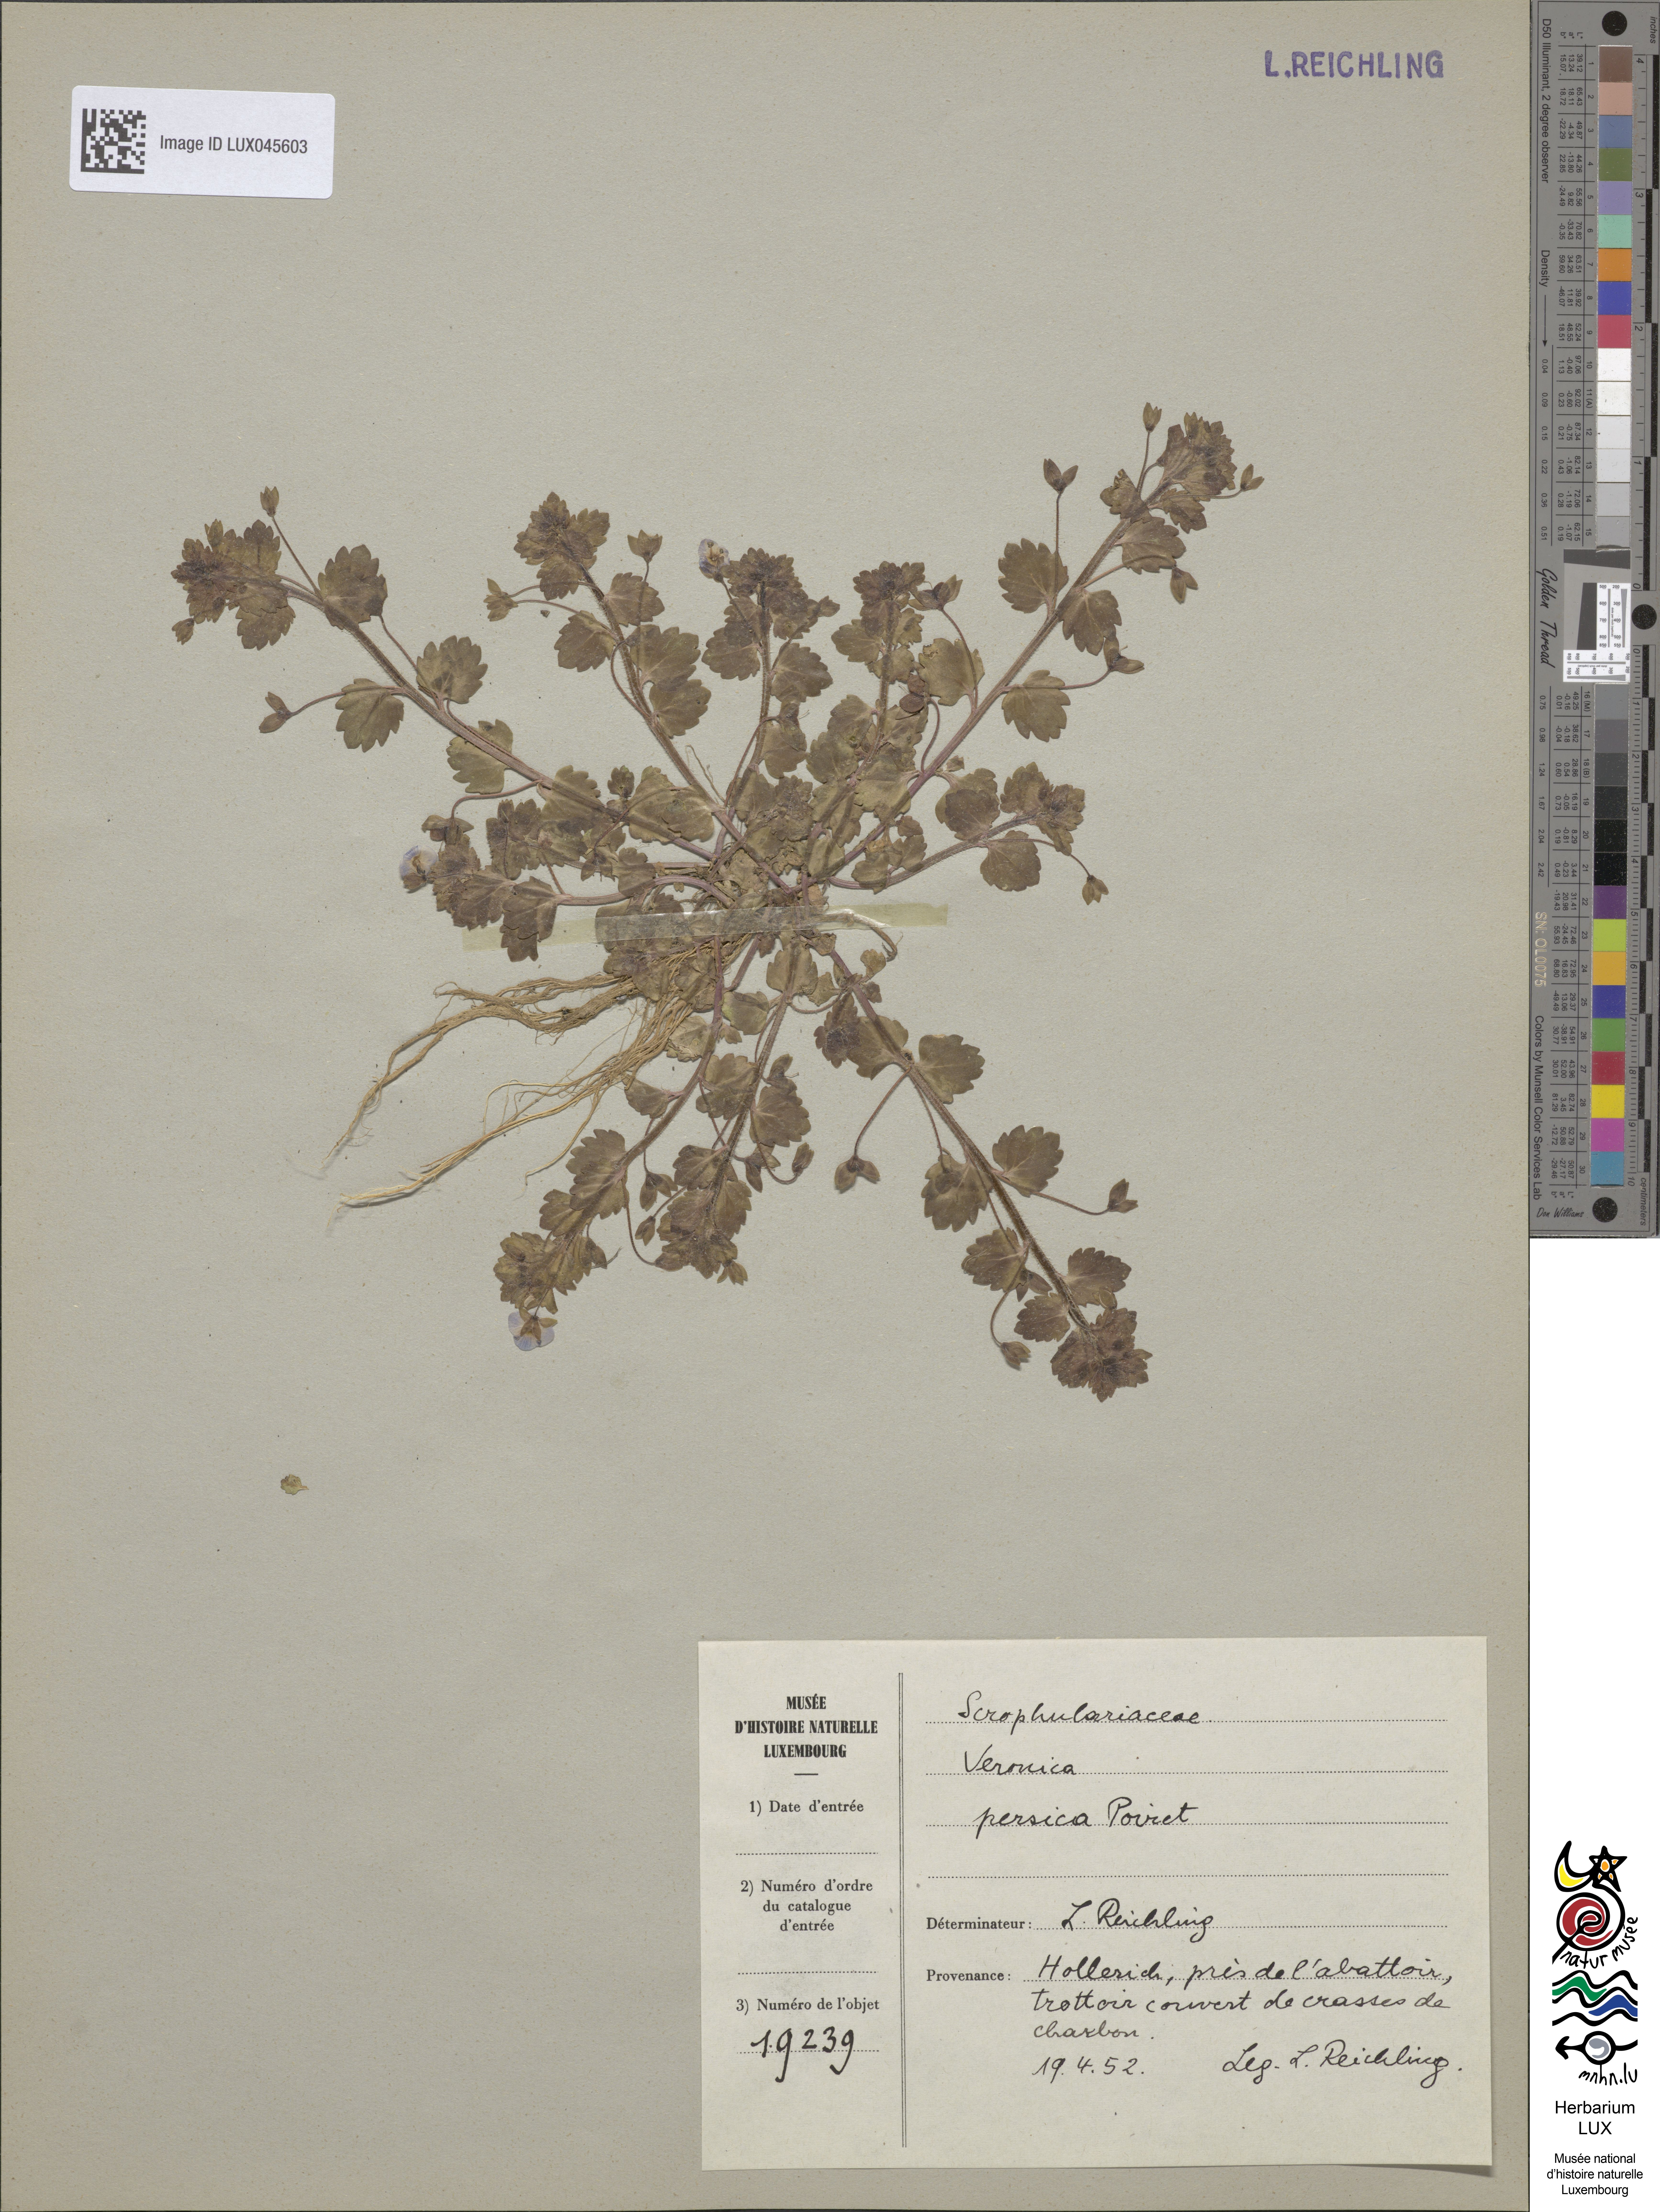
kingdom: Plantae
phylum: Tracheophyta
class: Magnoliopsida
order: Lamiales
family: Plantaginaceae
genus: Veronica
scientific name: Veronica persica
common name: Common field-speedwell
